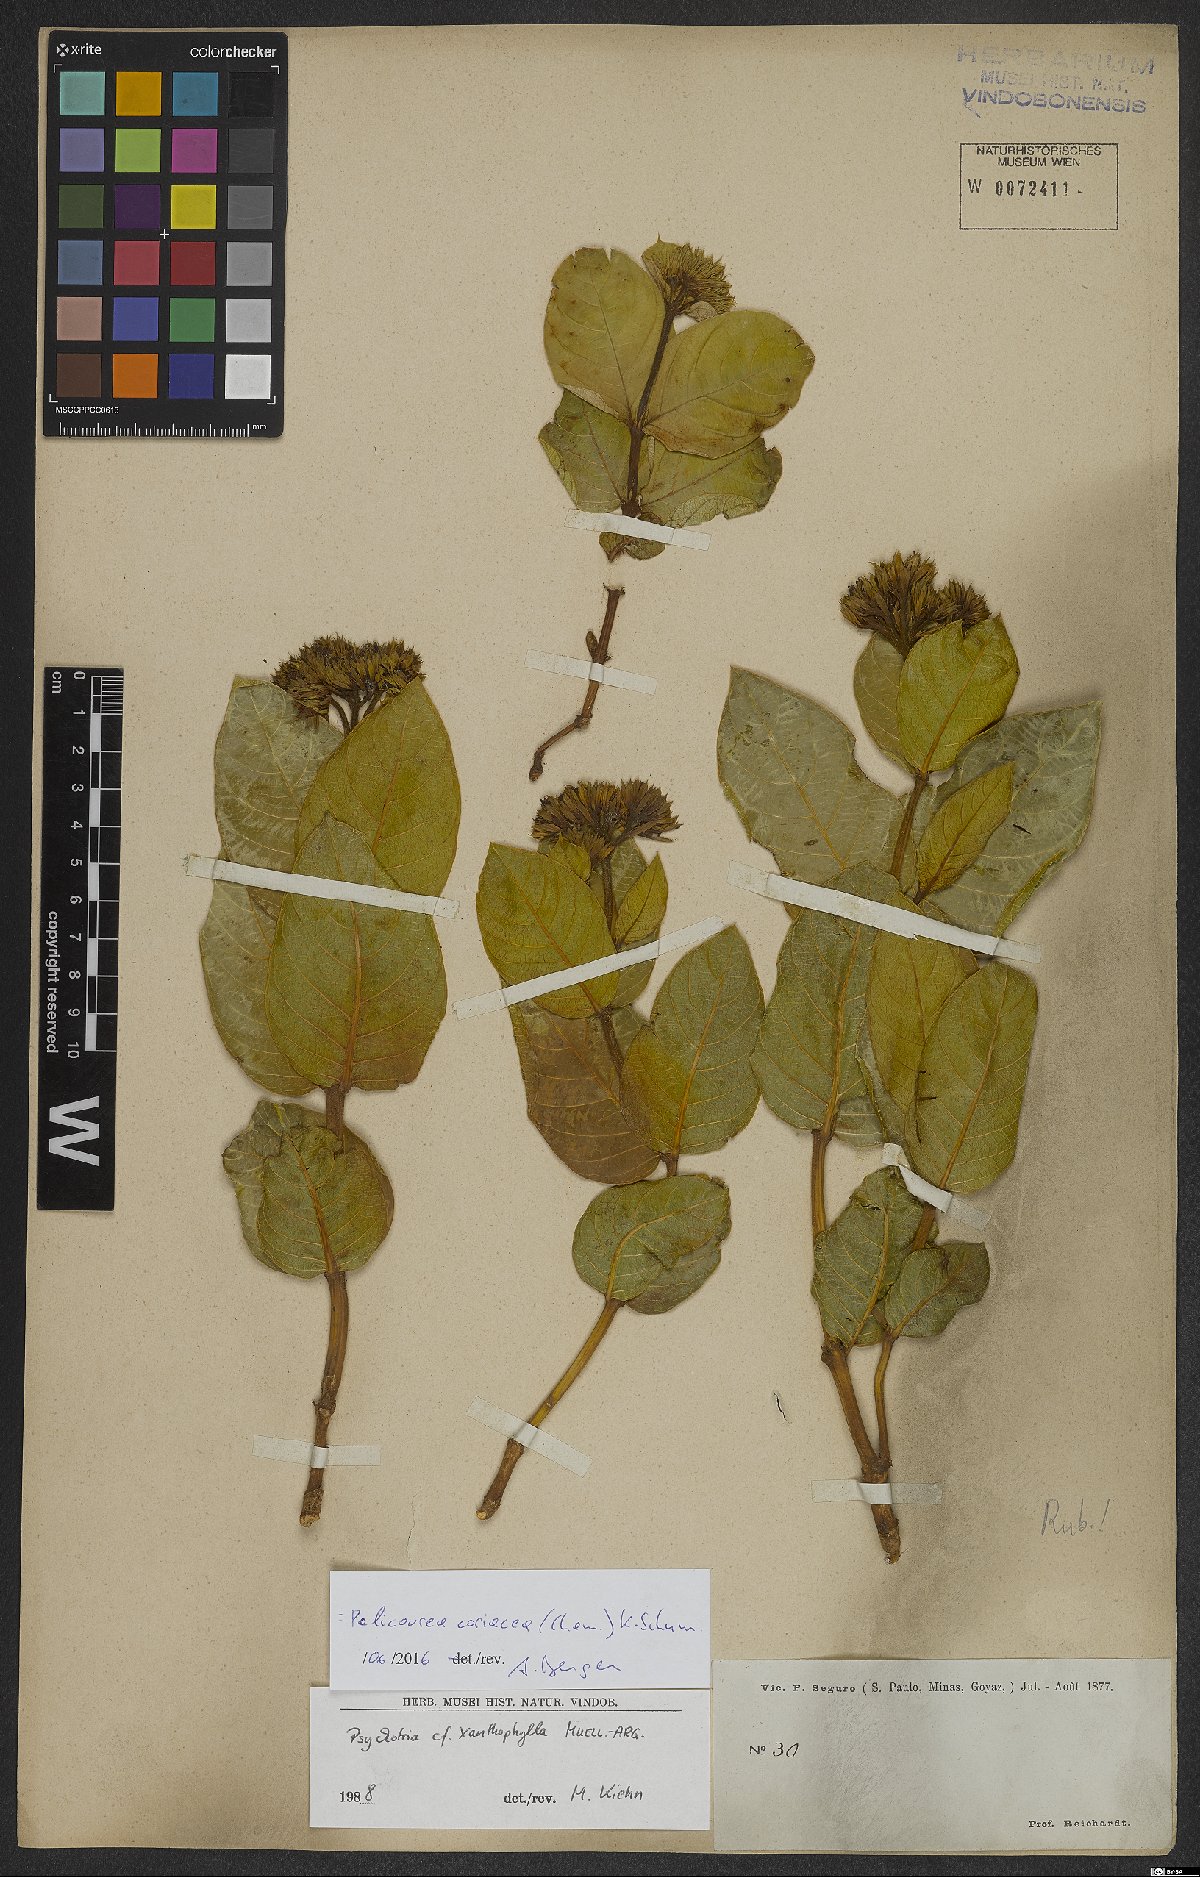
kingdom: Plantae
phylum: Tracheophyta
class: Magnoliopsida
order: Gentianales
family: Rubiaceae
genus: Palicourea
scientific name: Palicourea coriacea
